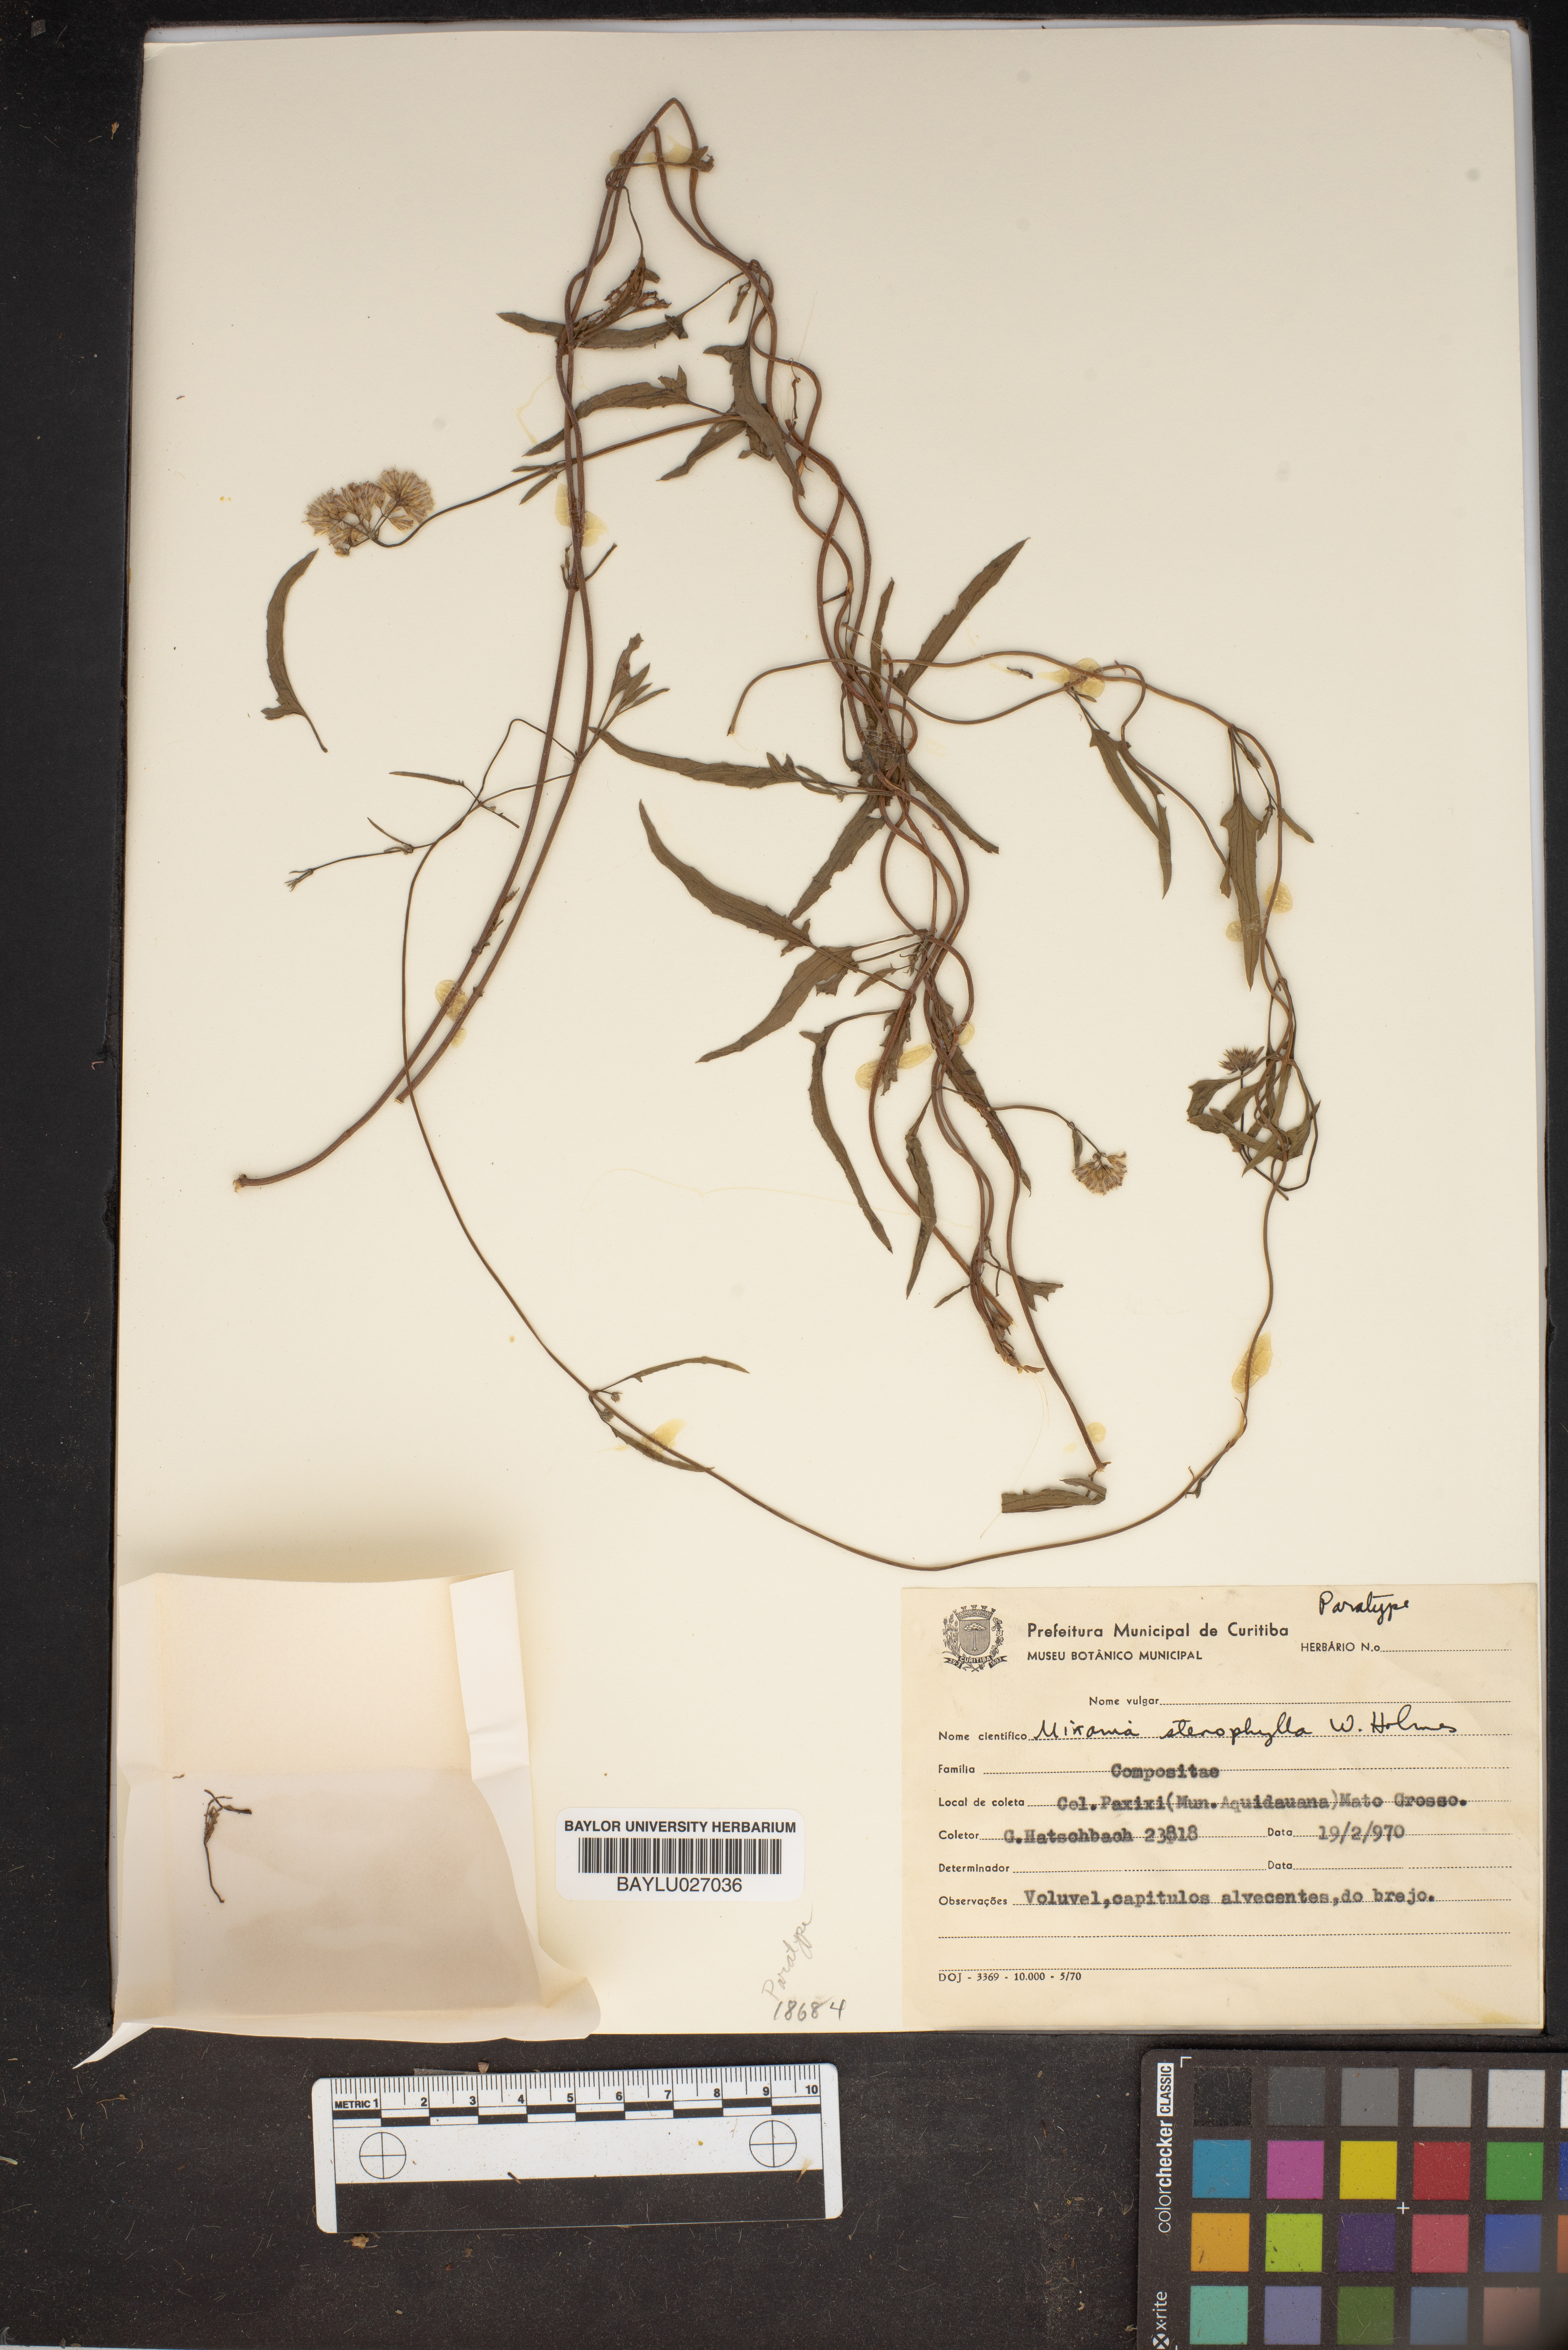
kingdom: Plantae
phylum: Tracheophyta
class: Magnoliopsida
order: Asterales
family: Asteraceae
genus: Mikania
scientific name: Mikania stenophylla
